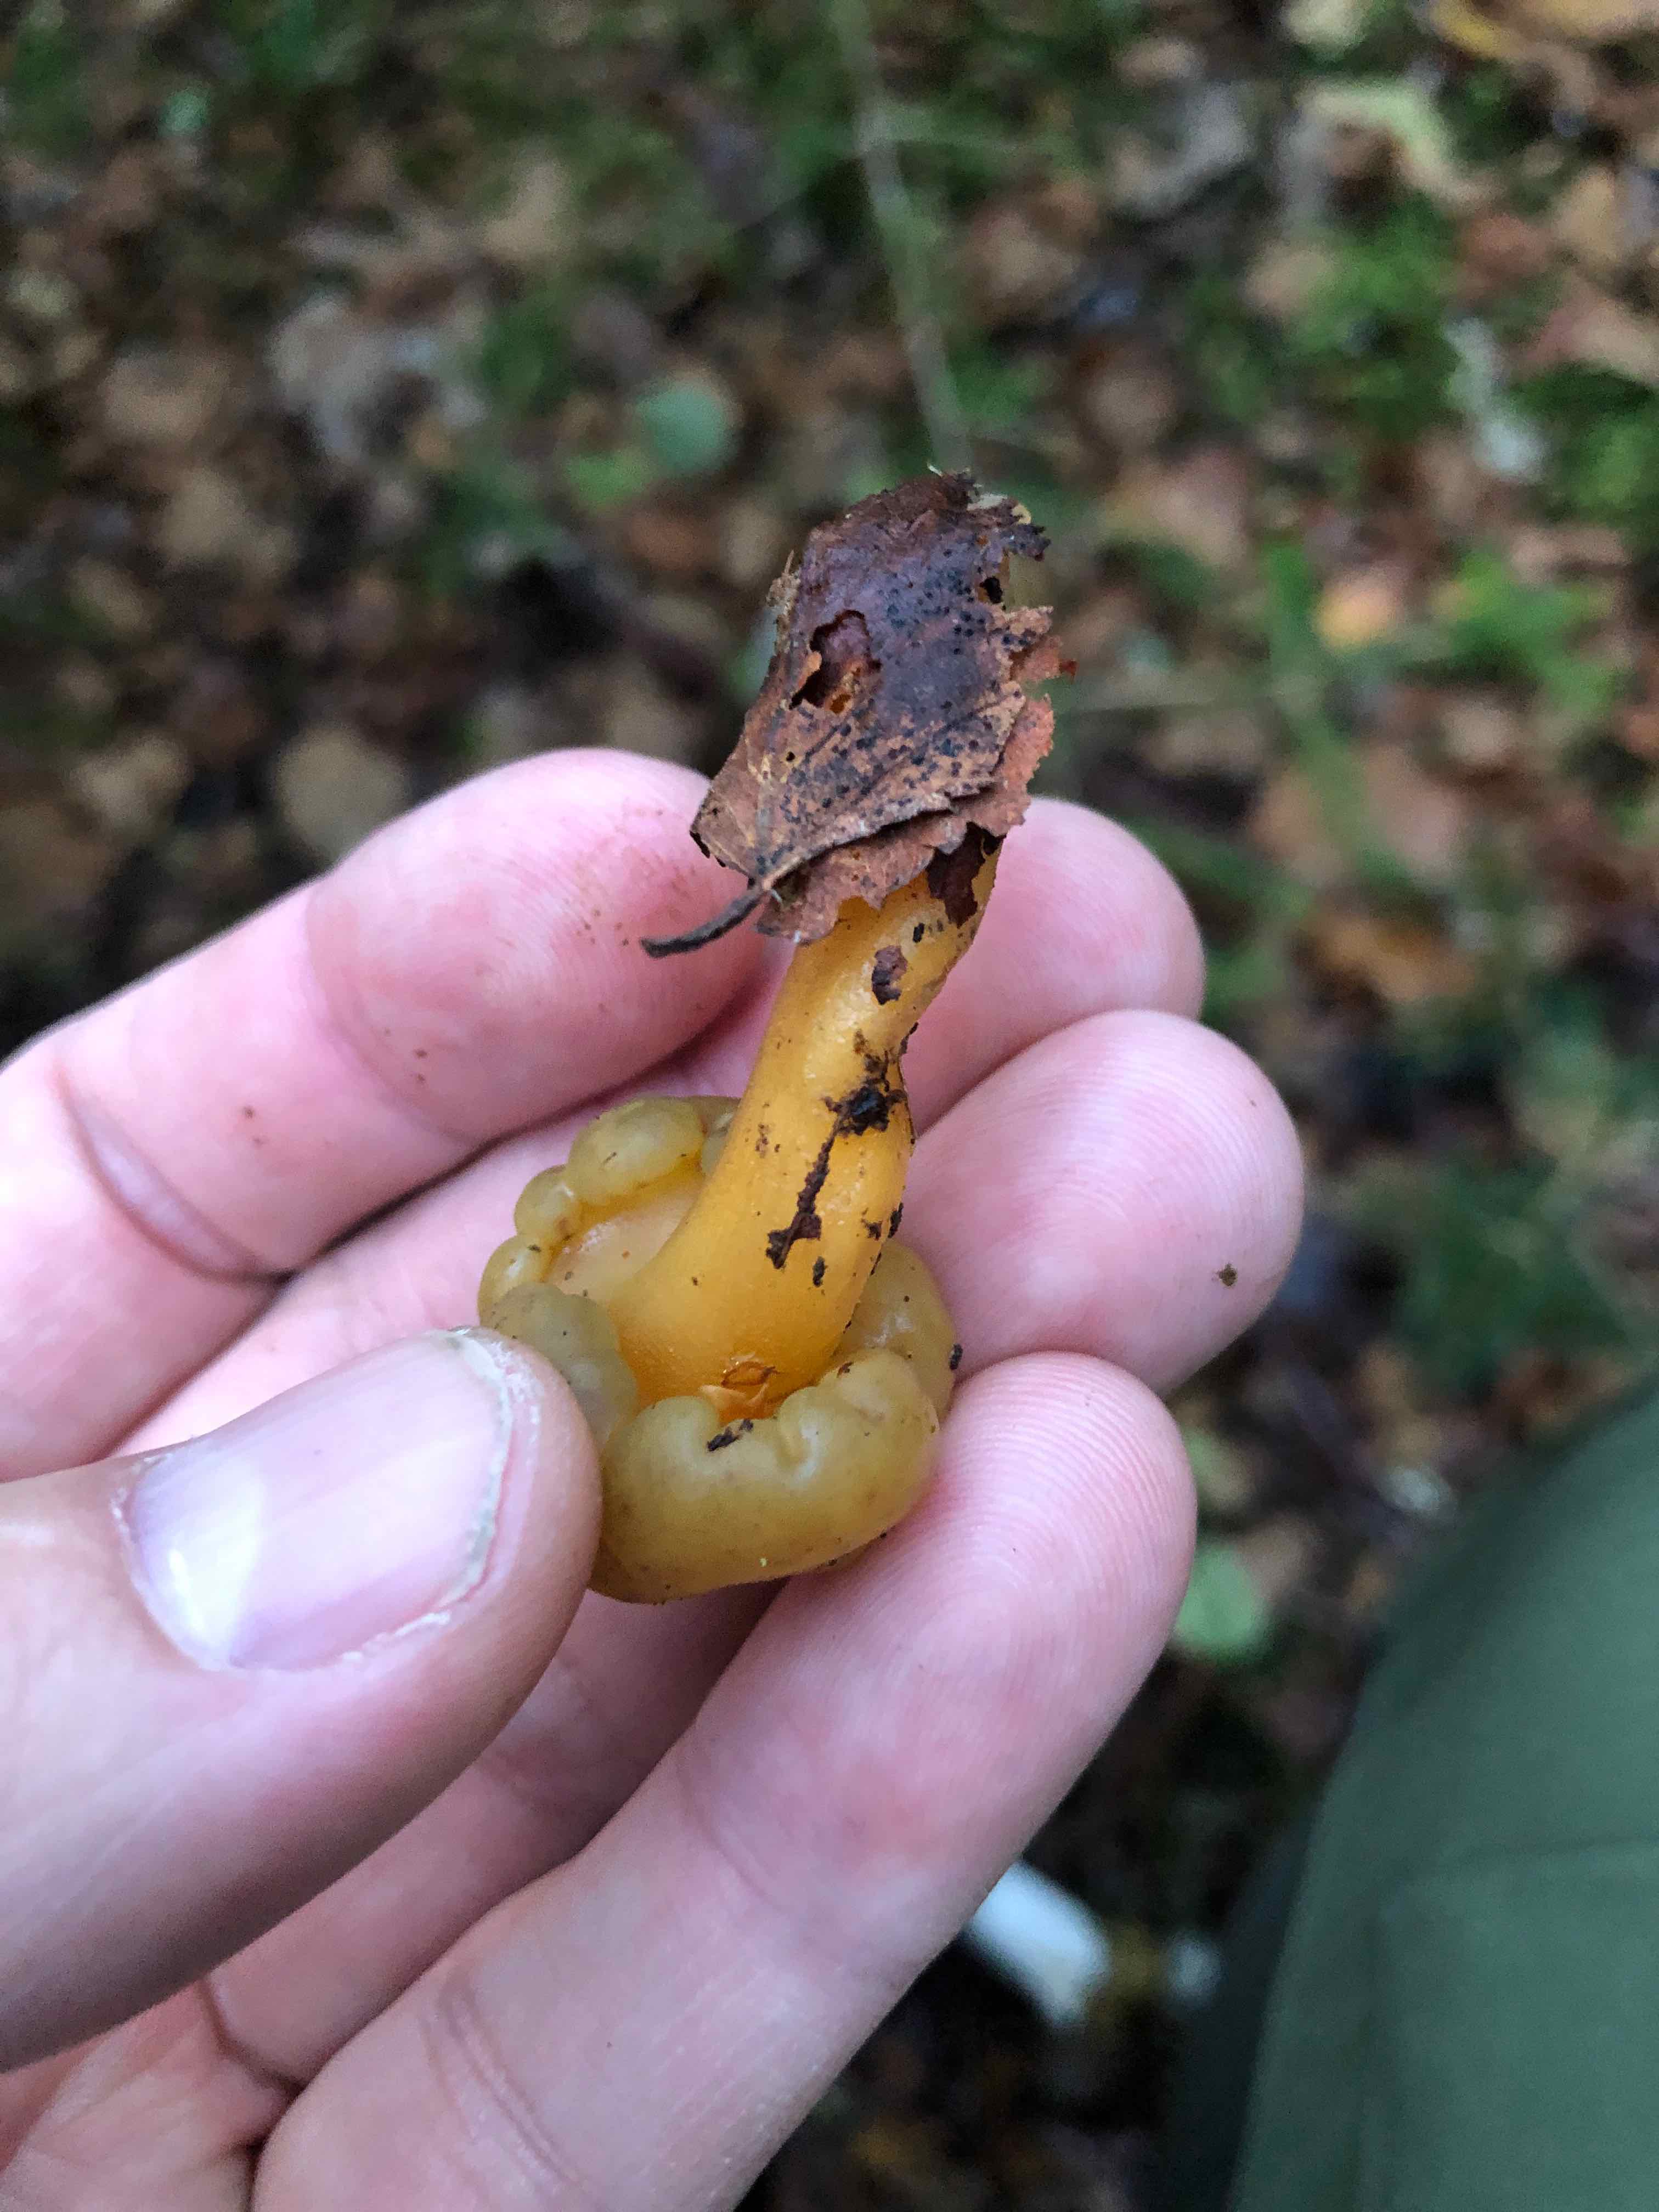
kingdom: Fungi
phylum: Ascomycota
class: Leotiomycetes
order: Leotiales
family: Leotiaceae
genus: Leotia
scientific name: Leotia lubrica
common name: ravsvamp
